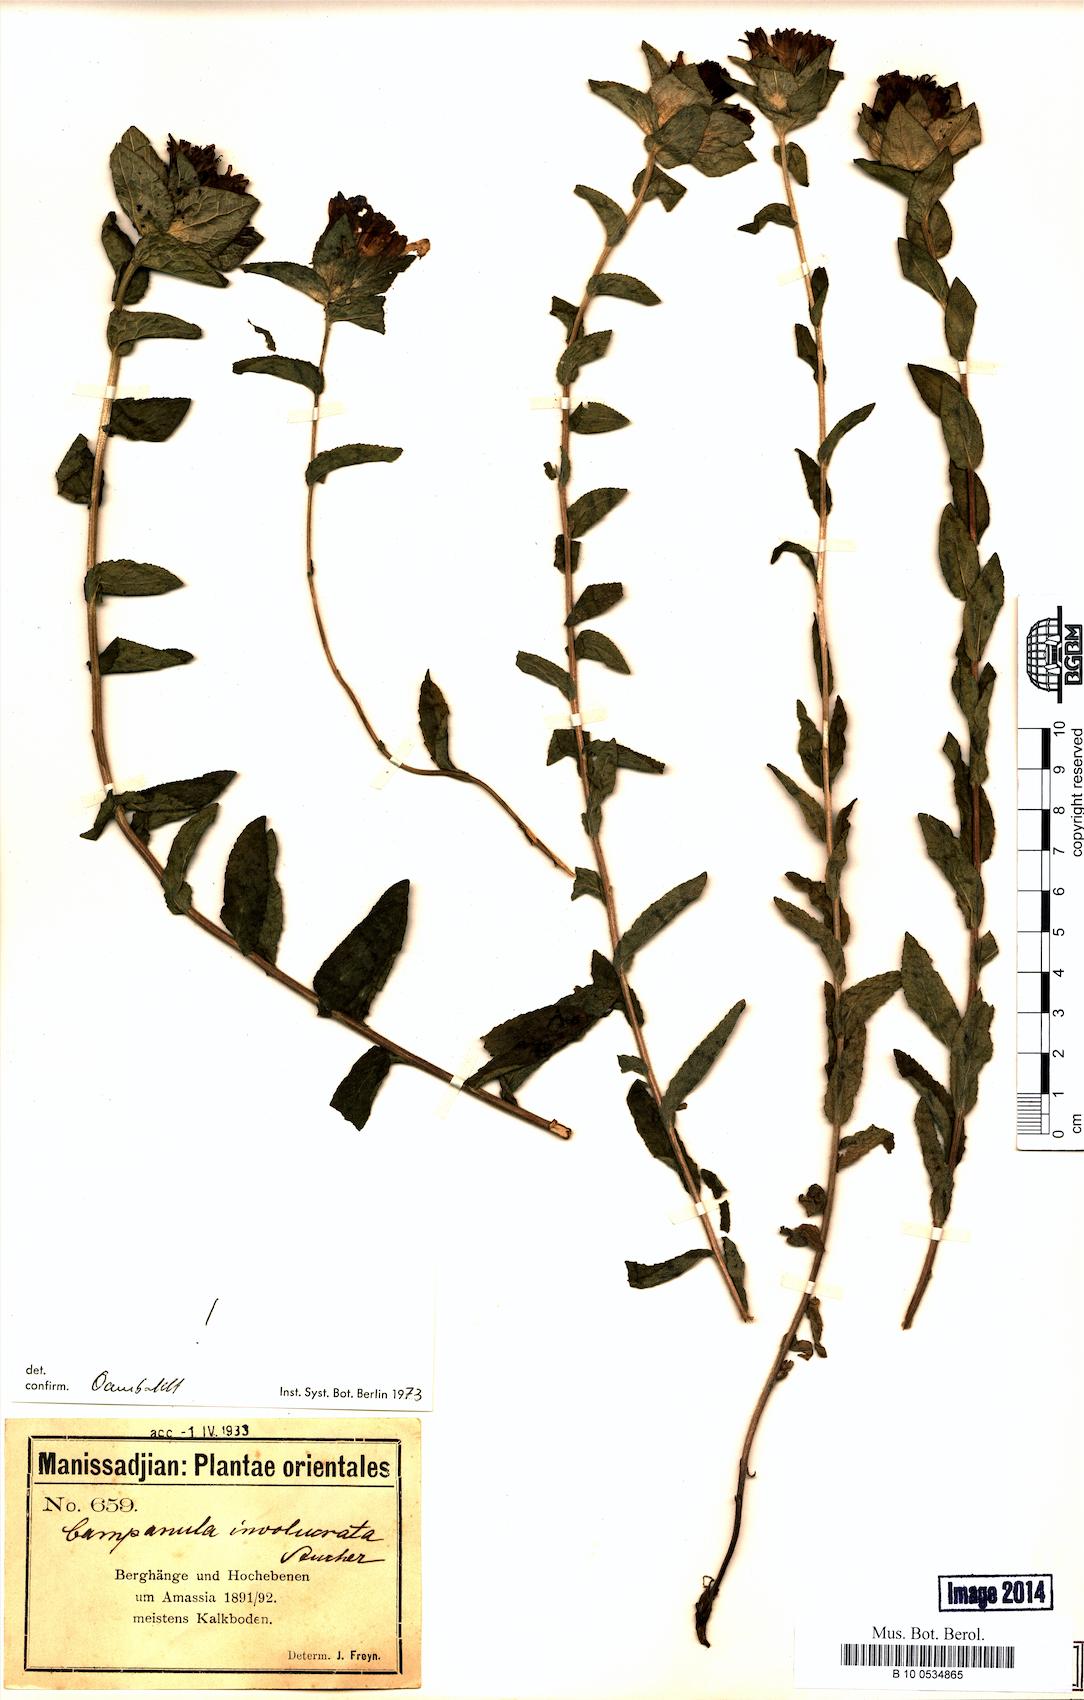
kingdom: Plantae
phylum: Tracheophyta
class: Magnoliopsida
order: Asterales
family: Campanulaceae
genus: Campanula
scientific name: Campanula involucrata
